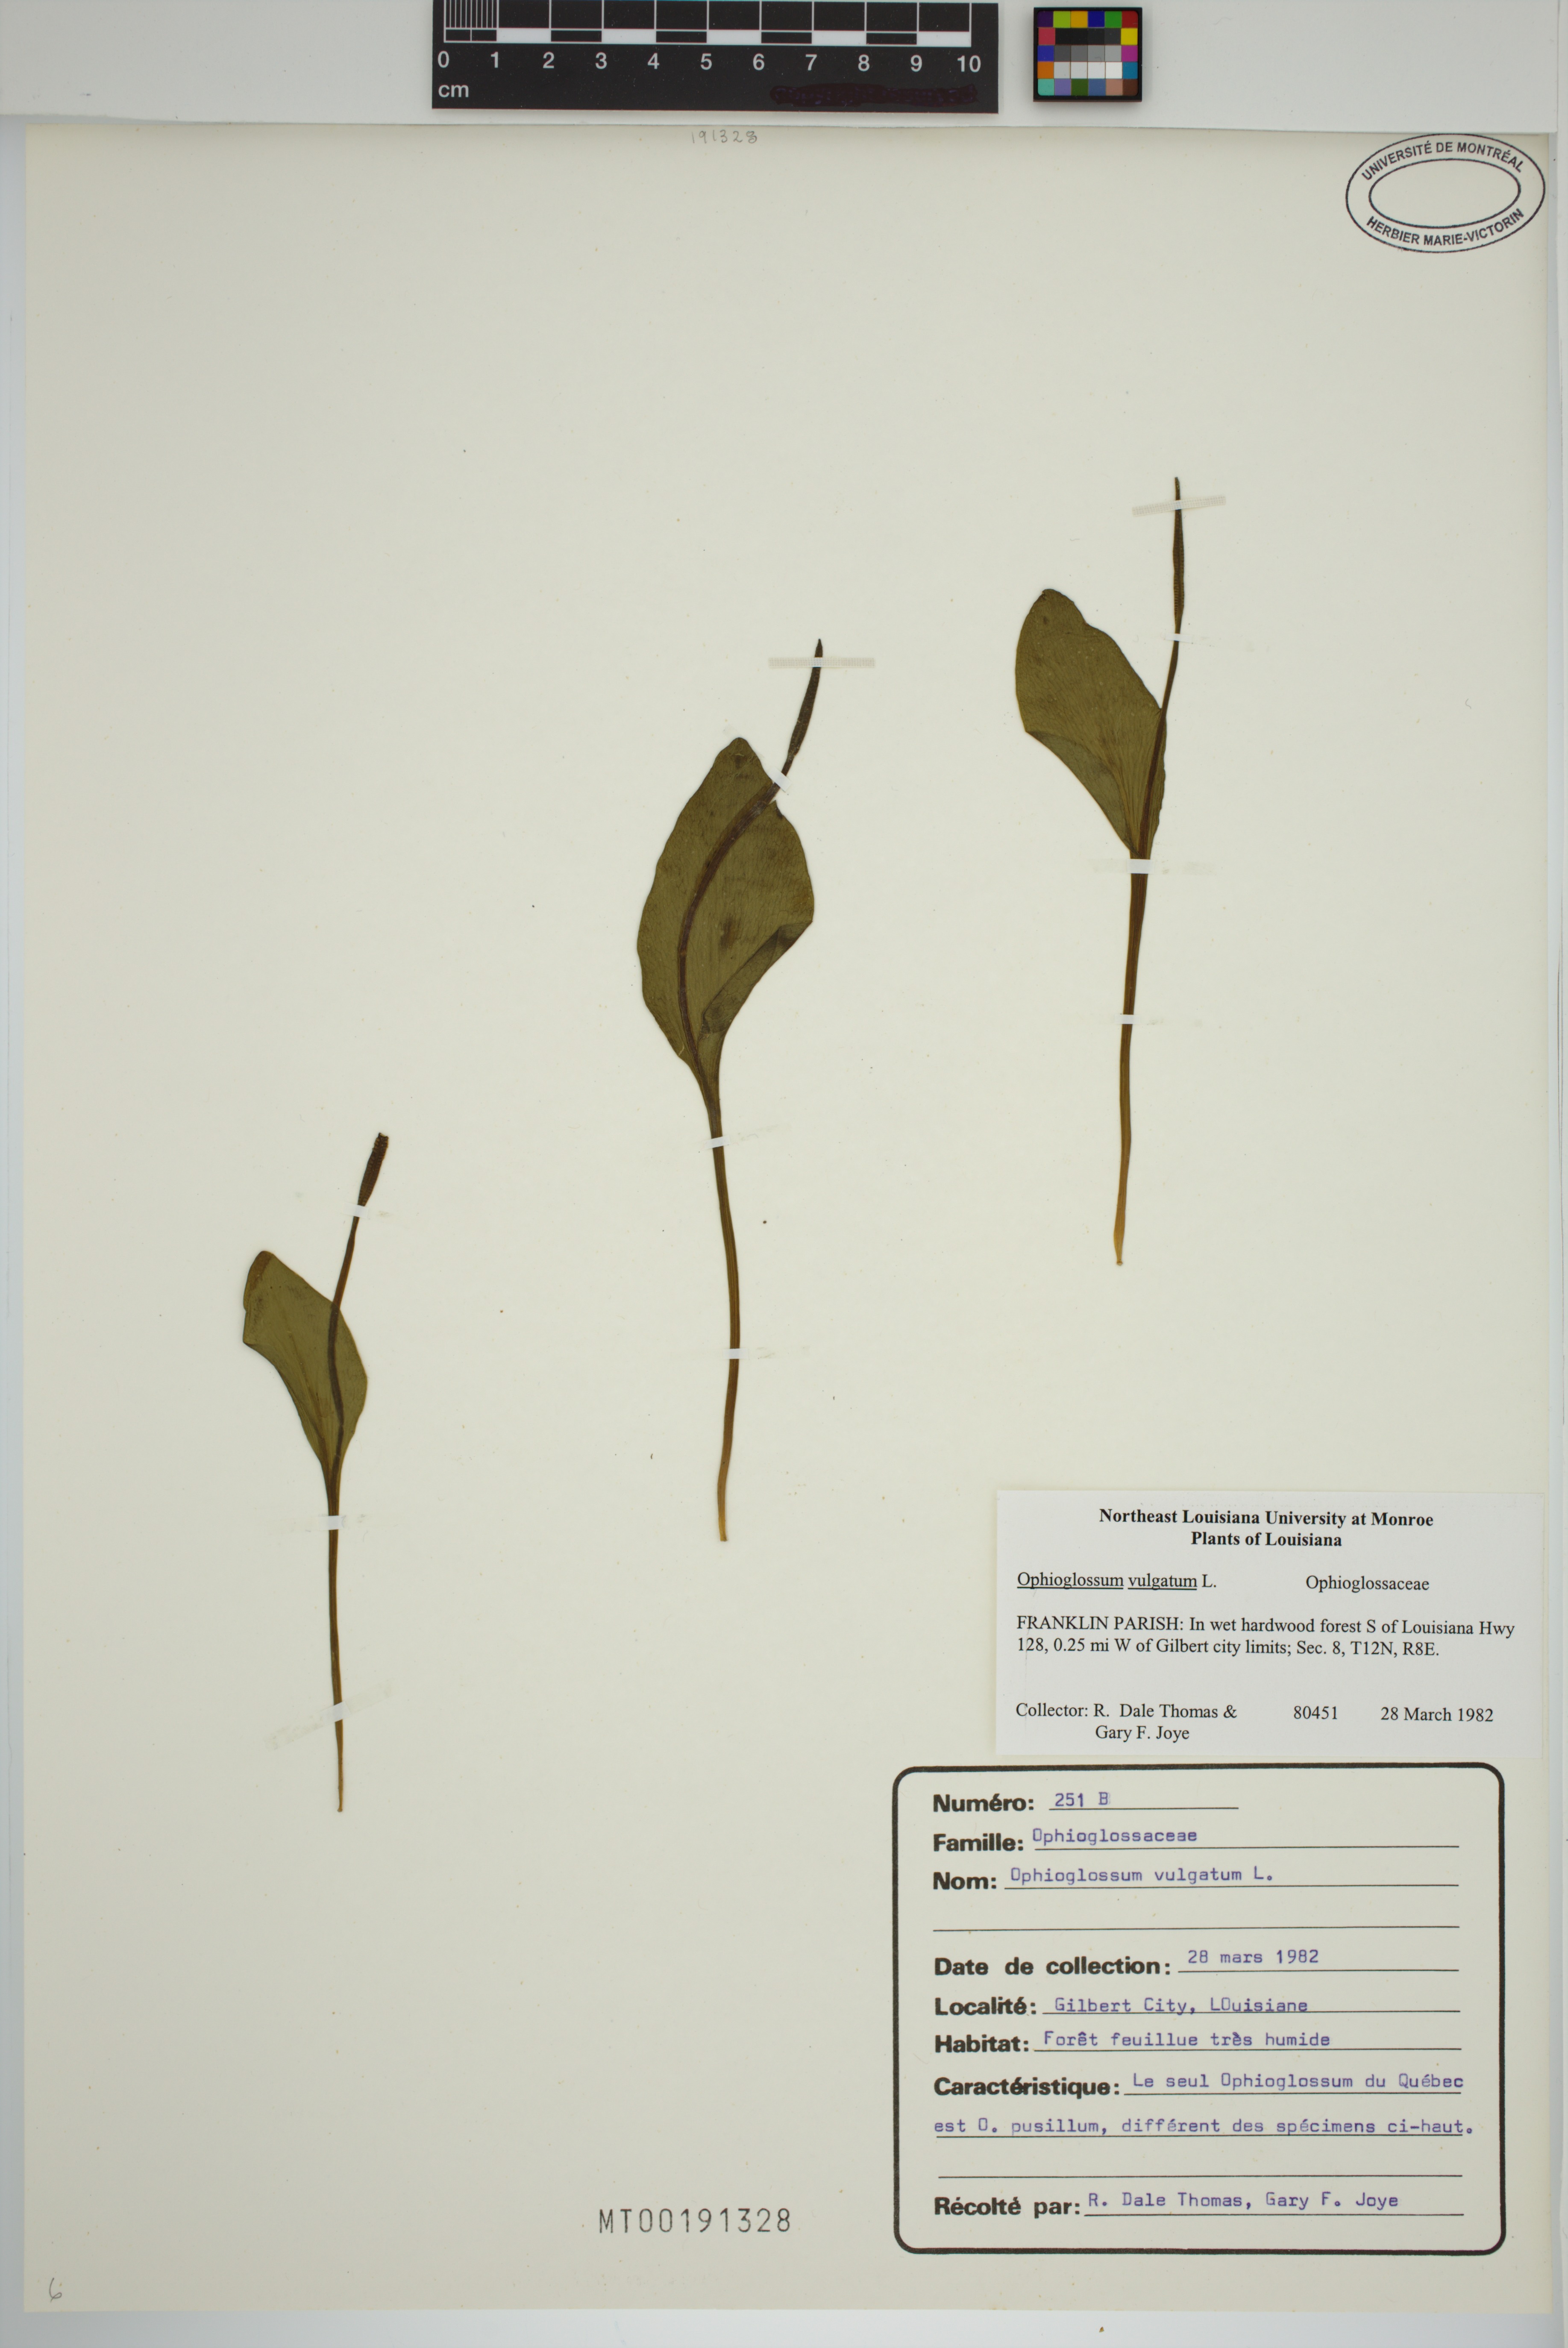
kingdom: Plantae
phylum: Tracheophyta
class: Polypodiopsida
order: Ophioglossales
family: Ophioglossaceae
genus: Ophioglossum
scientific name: Ophioglossum vulgatum
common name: Adder's-tongue
